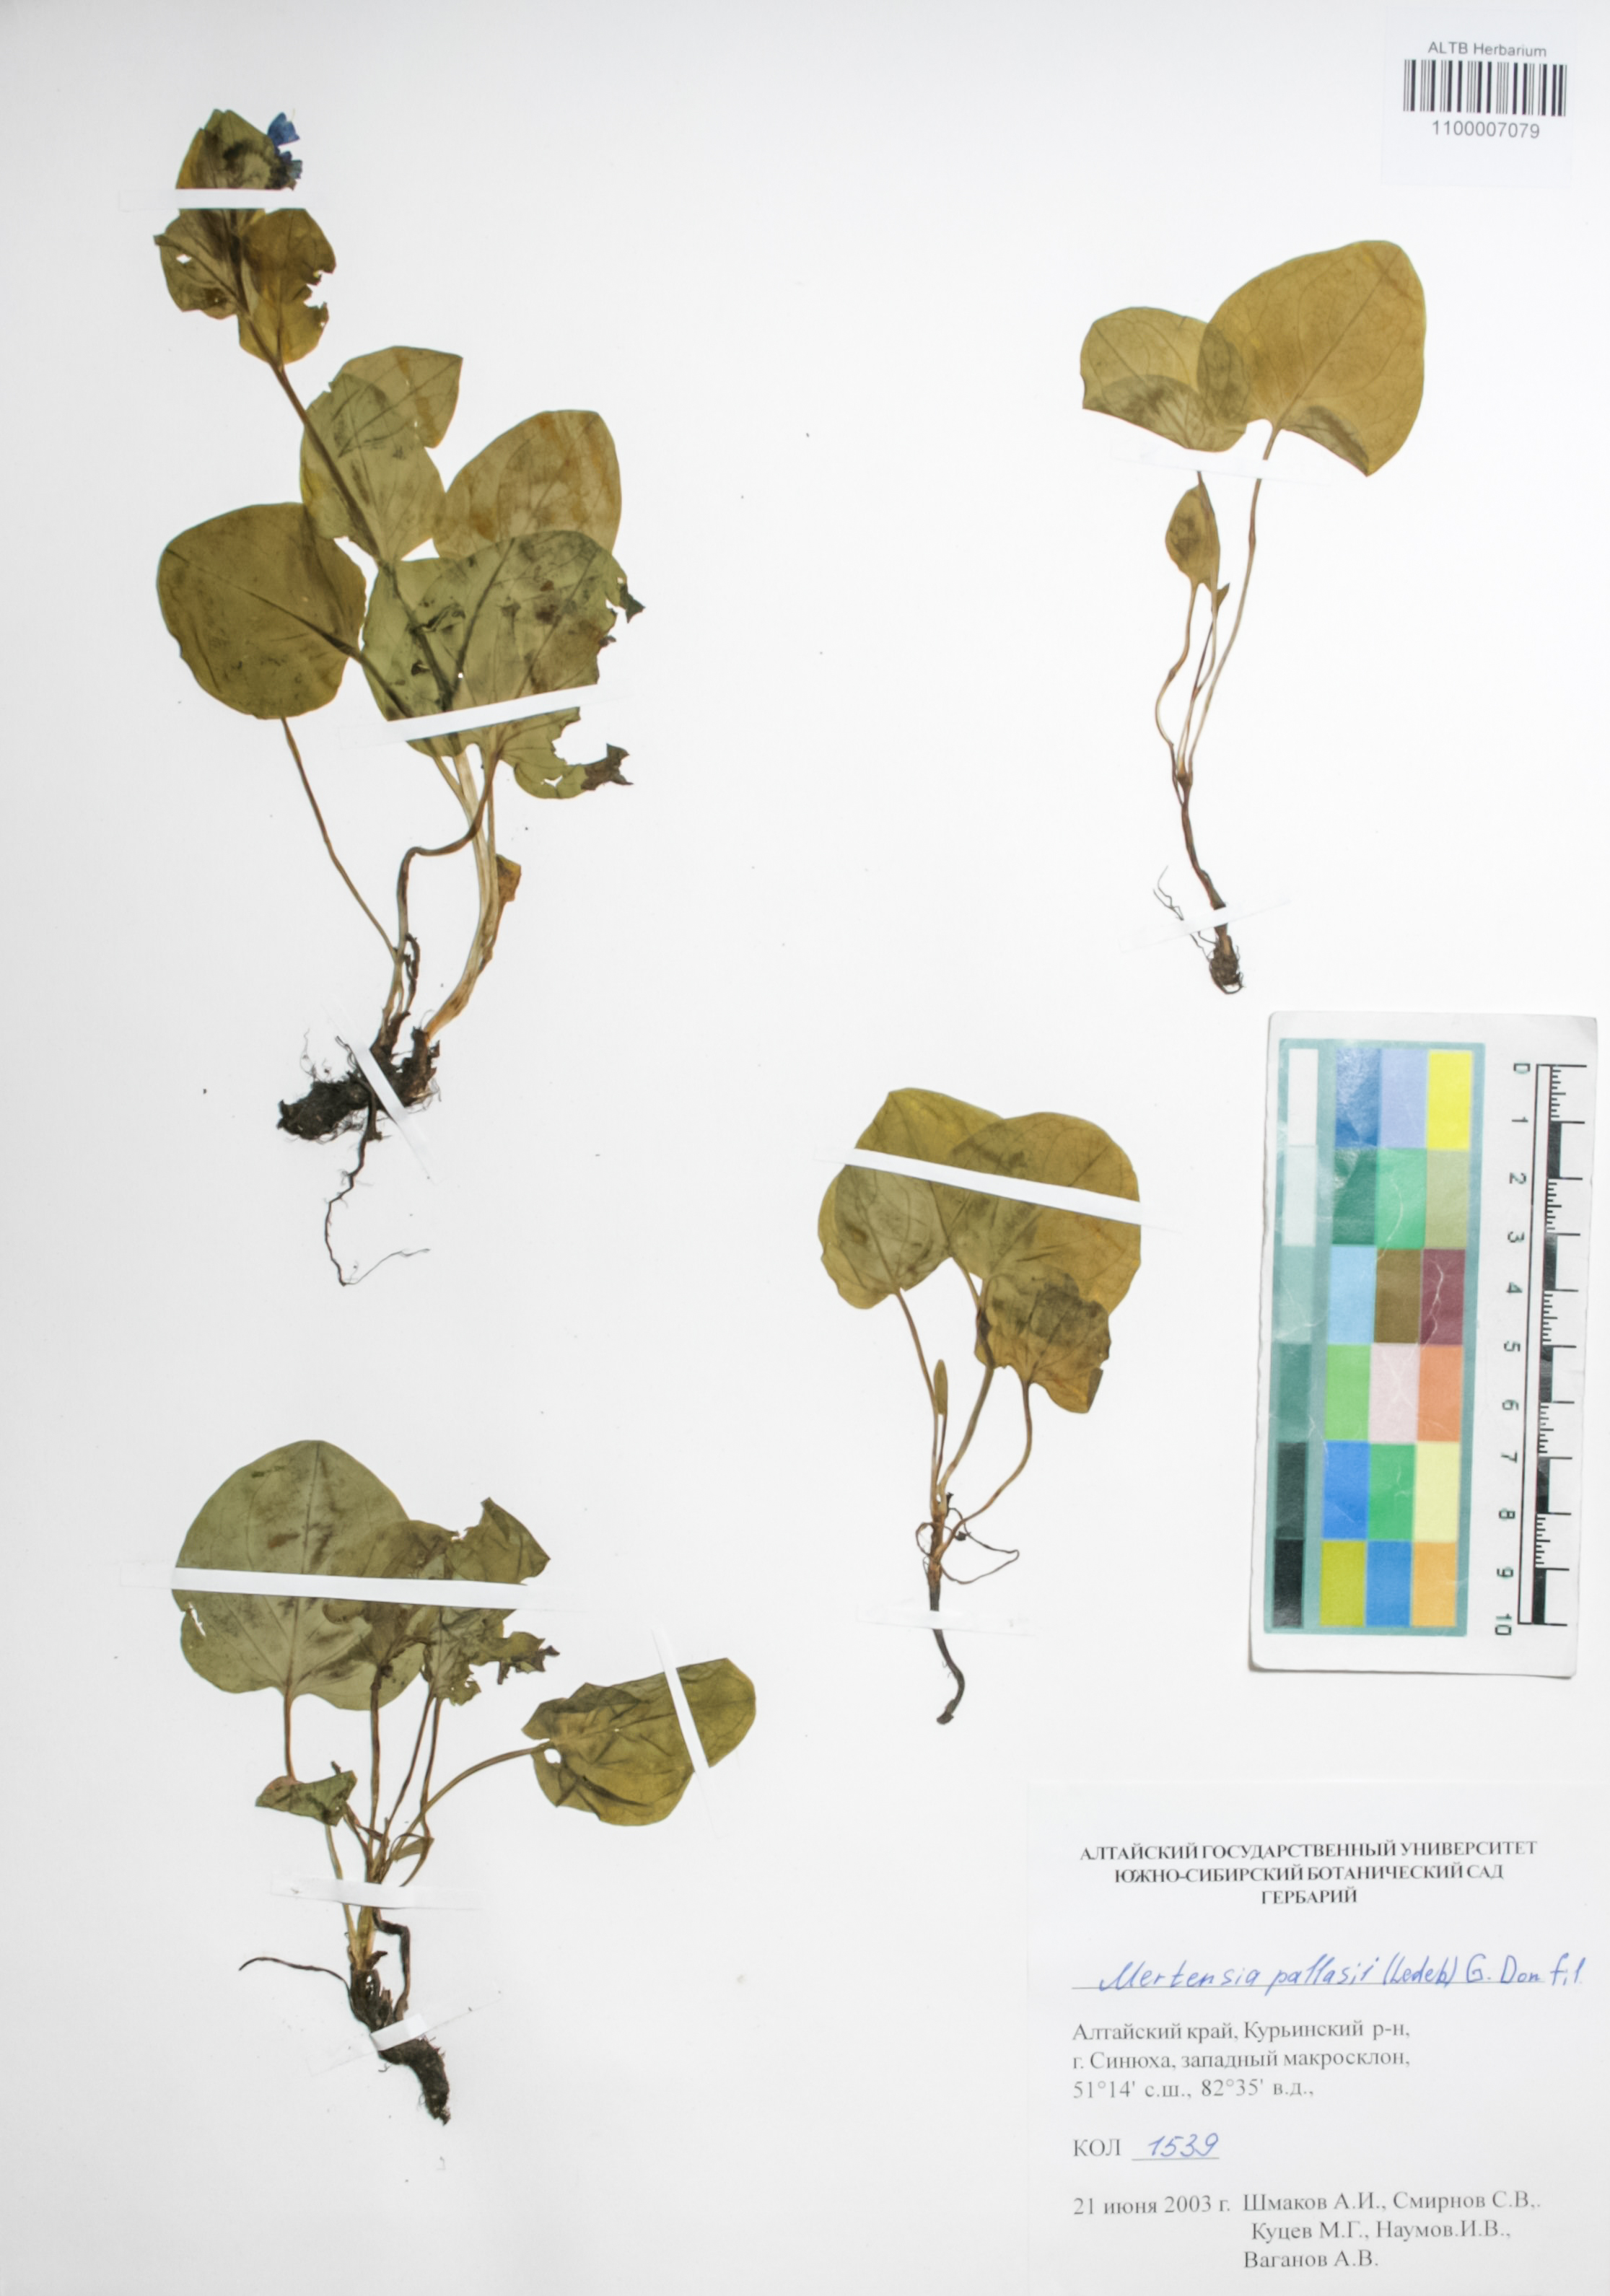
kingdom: Plantae
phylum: Tracheophyta
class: Magnoliopsida
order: Boraginales
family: Boraginaceae
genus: Mertensia
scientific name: Mertensia pallasii
